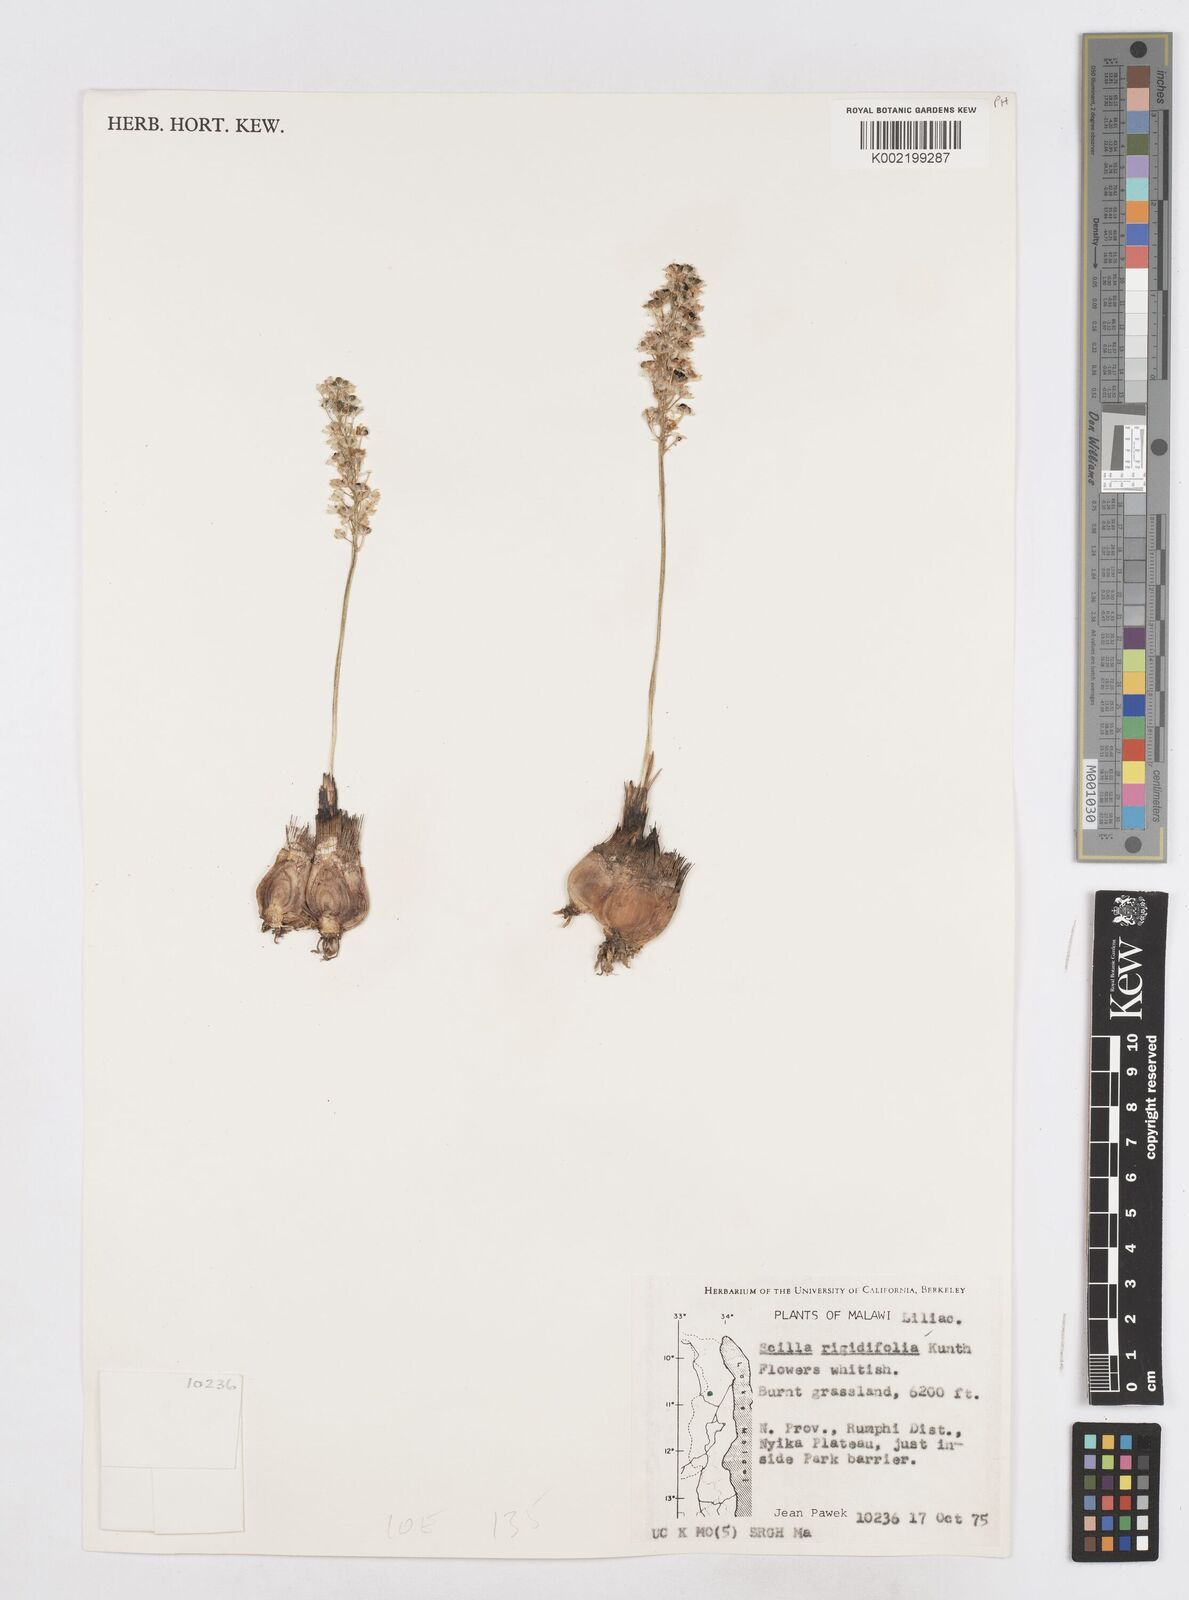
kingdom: Plantae
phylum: Tracheophyta
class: Liliopsida
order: Asparagales
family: Asparagaceae
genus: Schizocarphus
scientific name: Schizocarphus nervosus
